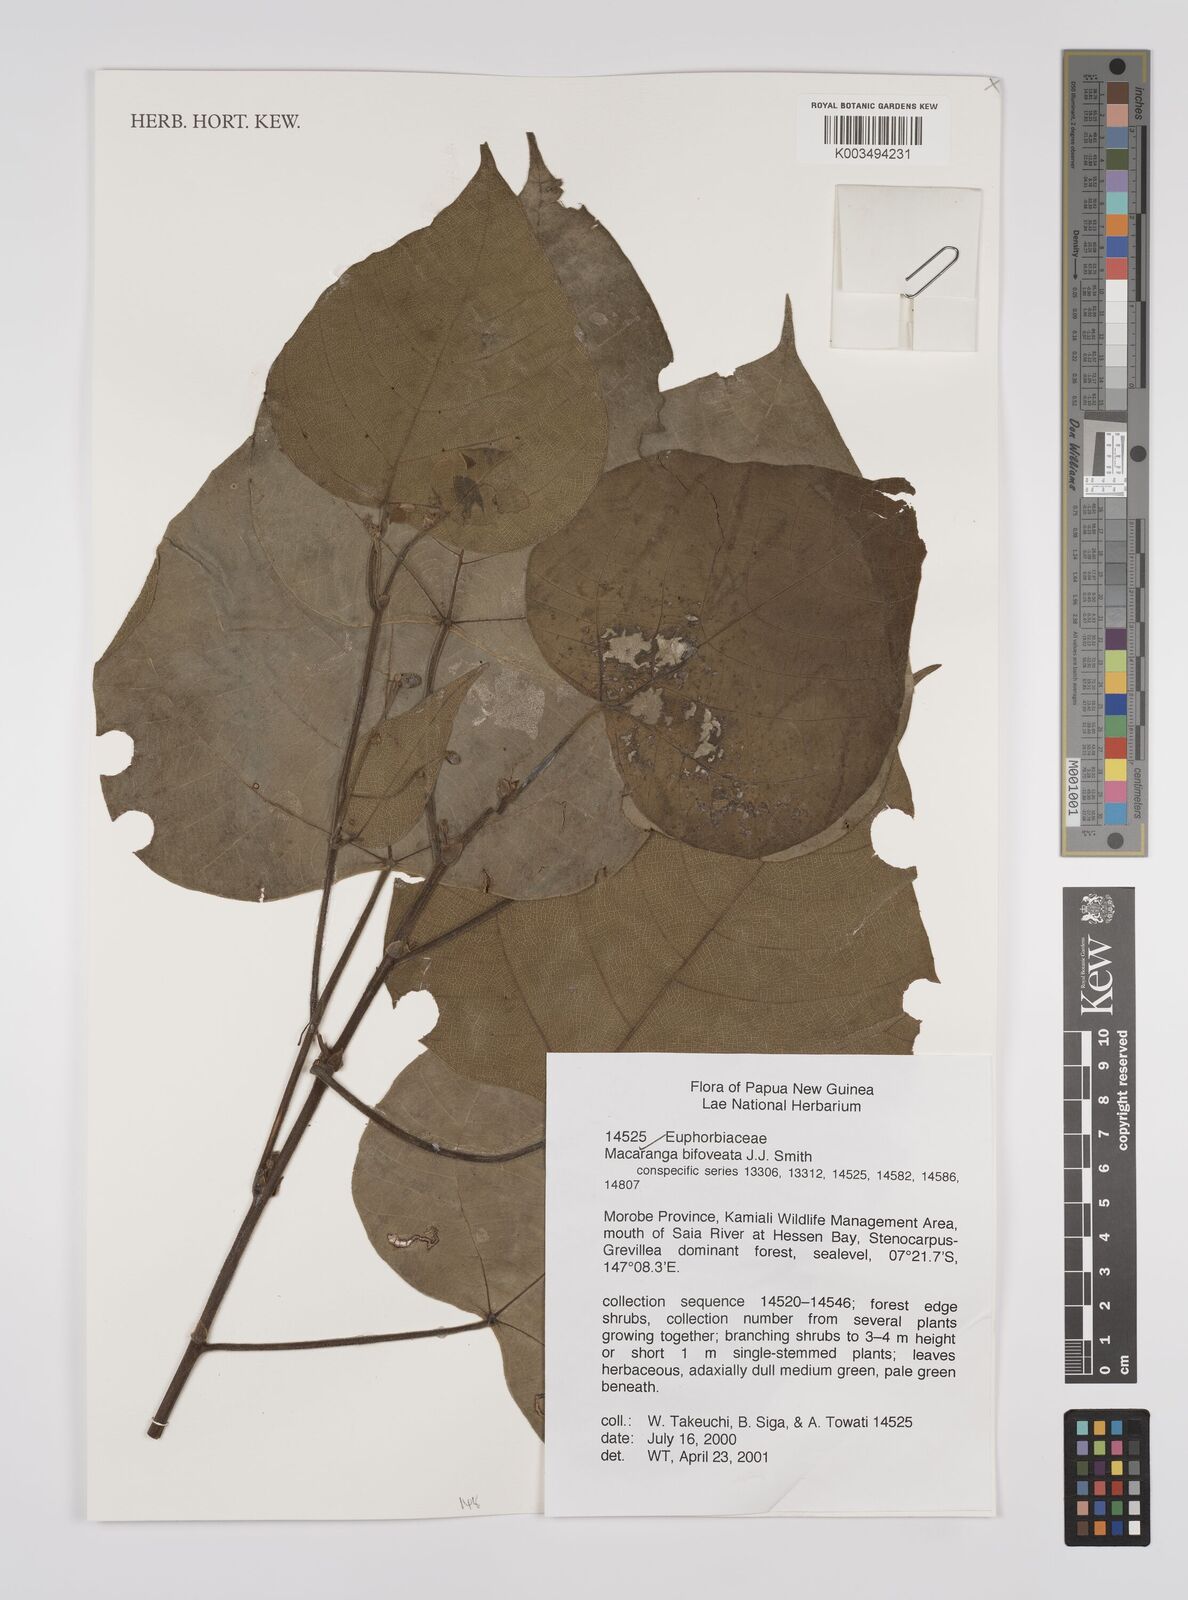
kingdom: Plantae
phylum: Tracheophyta
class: Magnoliopsida
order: Malpighiales
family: Euphorbiaceae
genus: Macaranga
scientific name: Macaranga bifoveata
